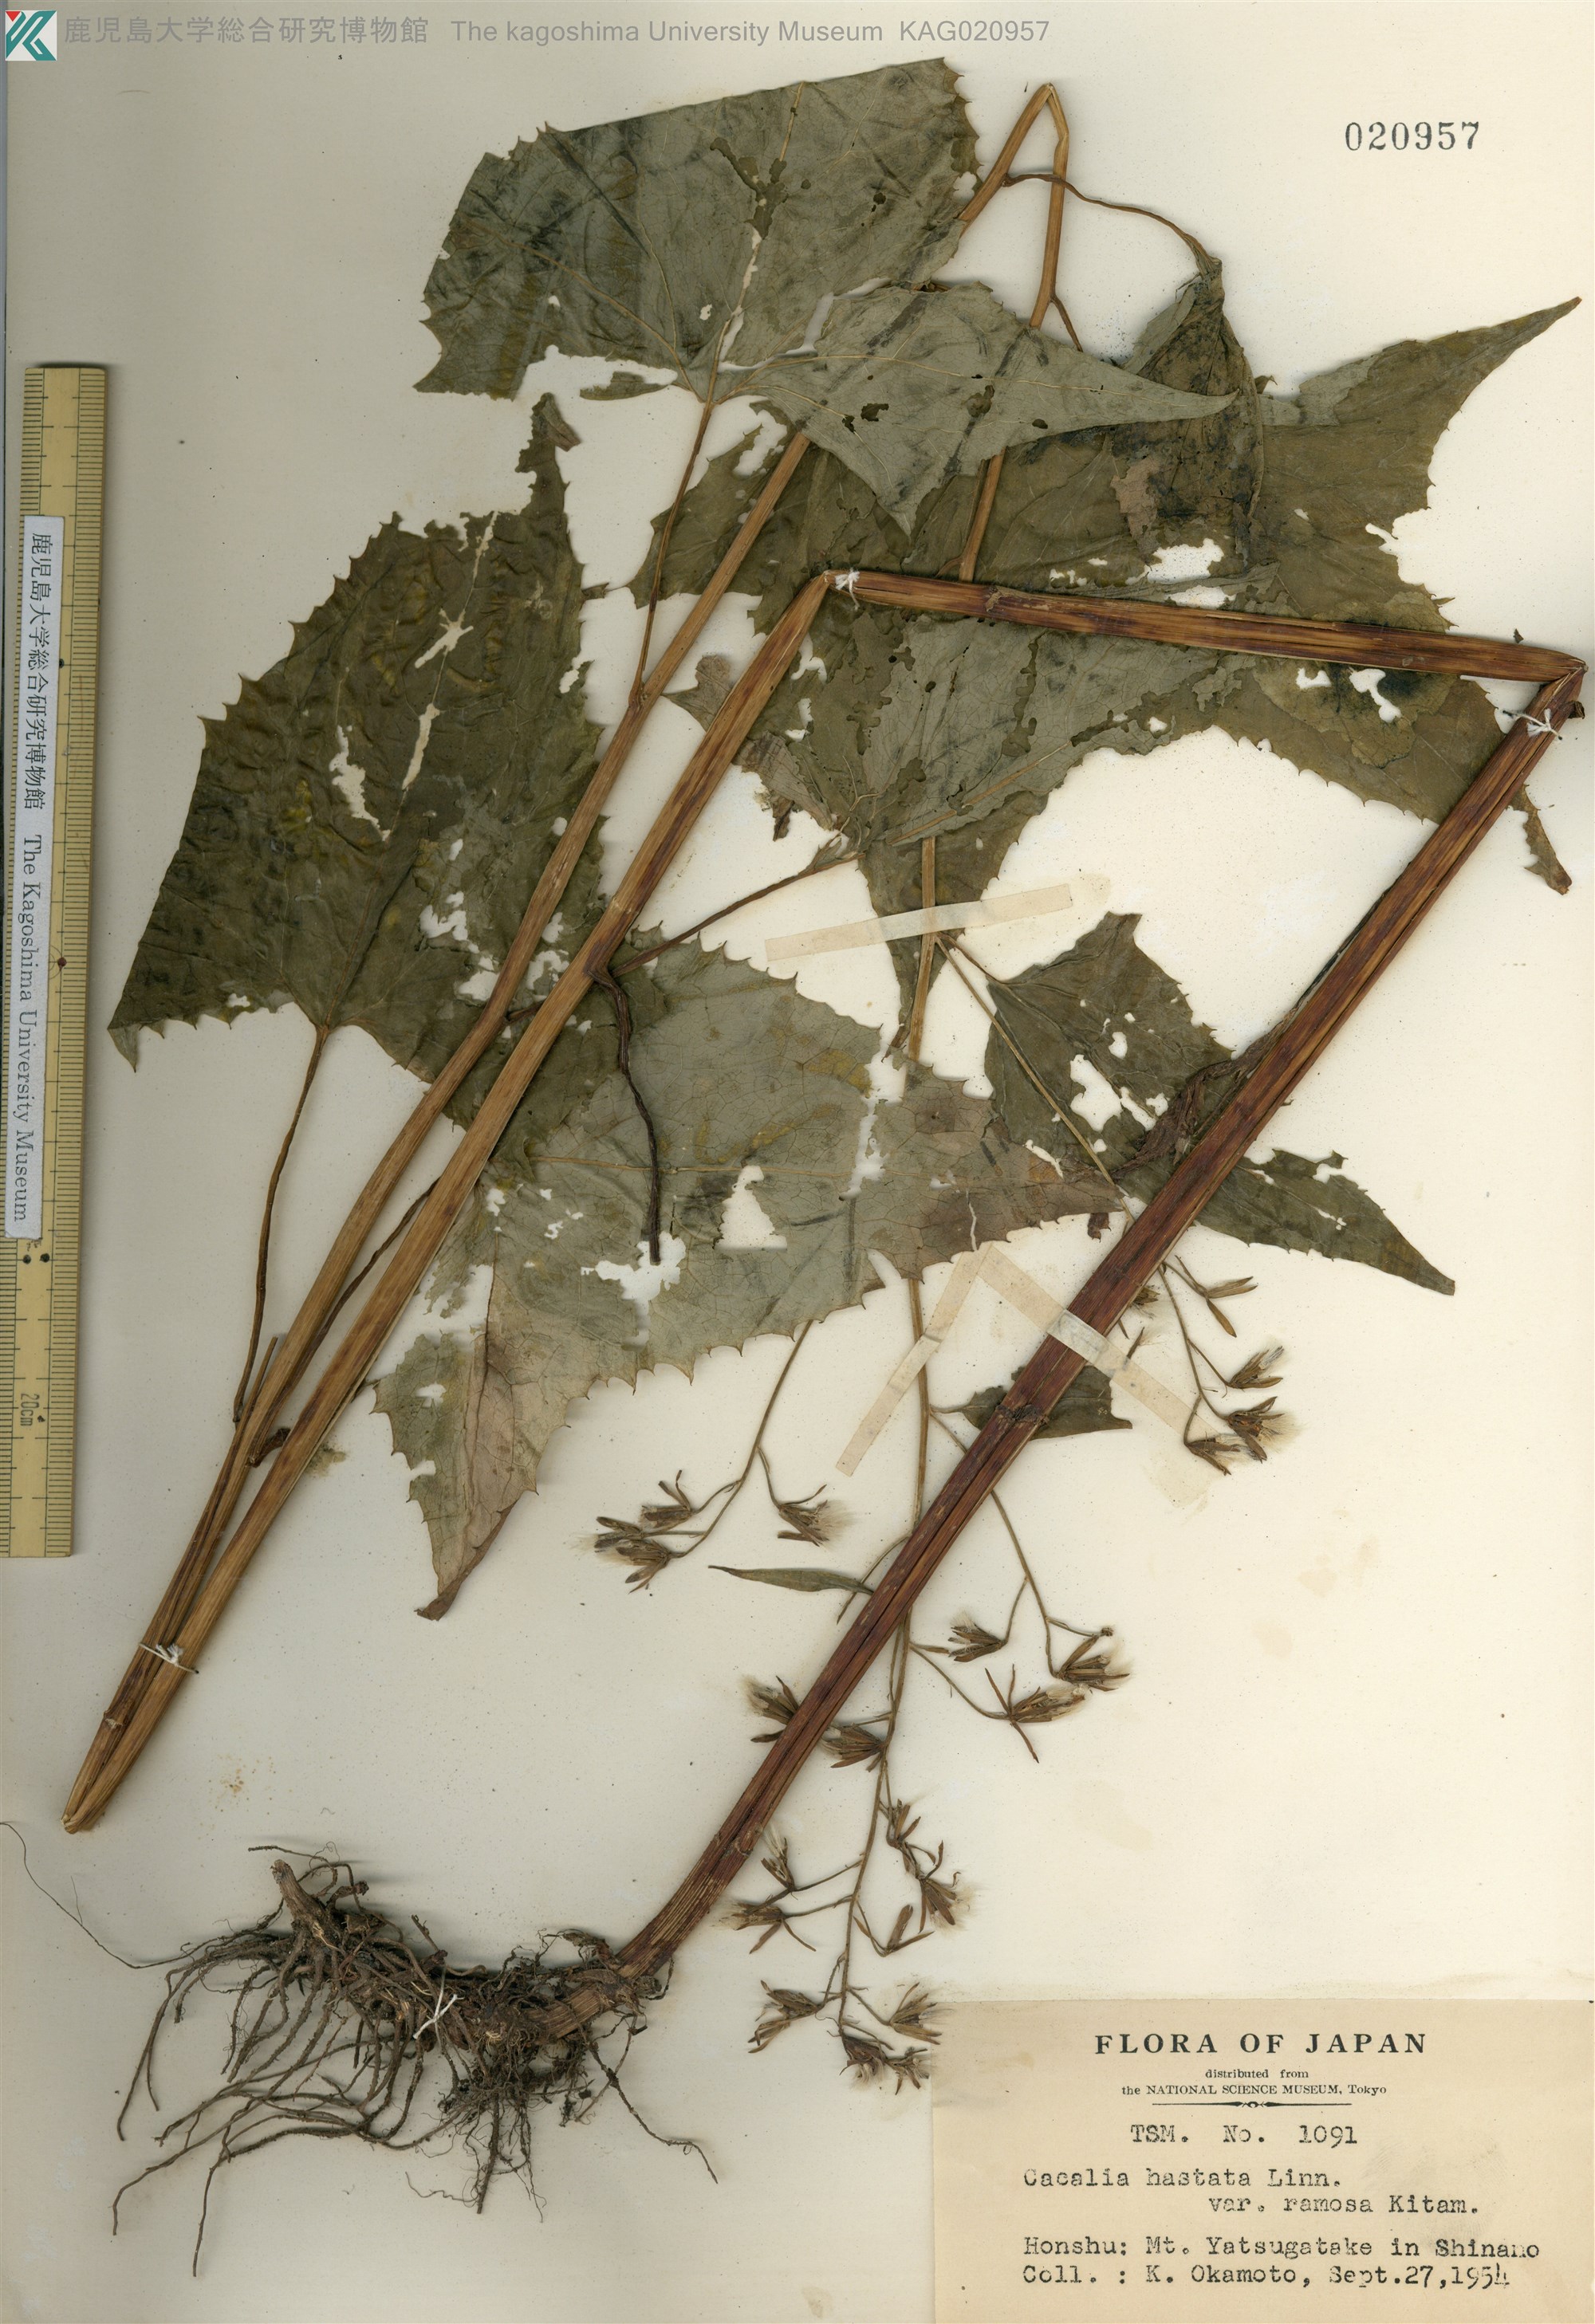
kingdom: Plantae
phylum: Tracheophyta
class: Magnoliopsida
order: Asterales
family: Asteraceae
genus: Parasenecio
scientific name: Parasenecio
